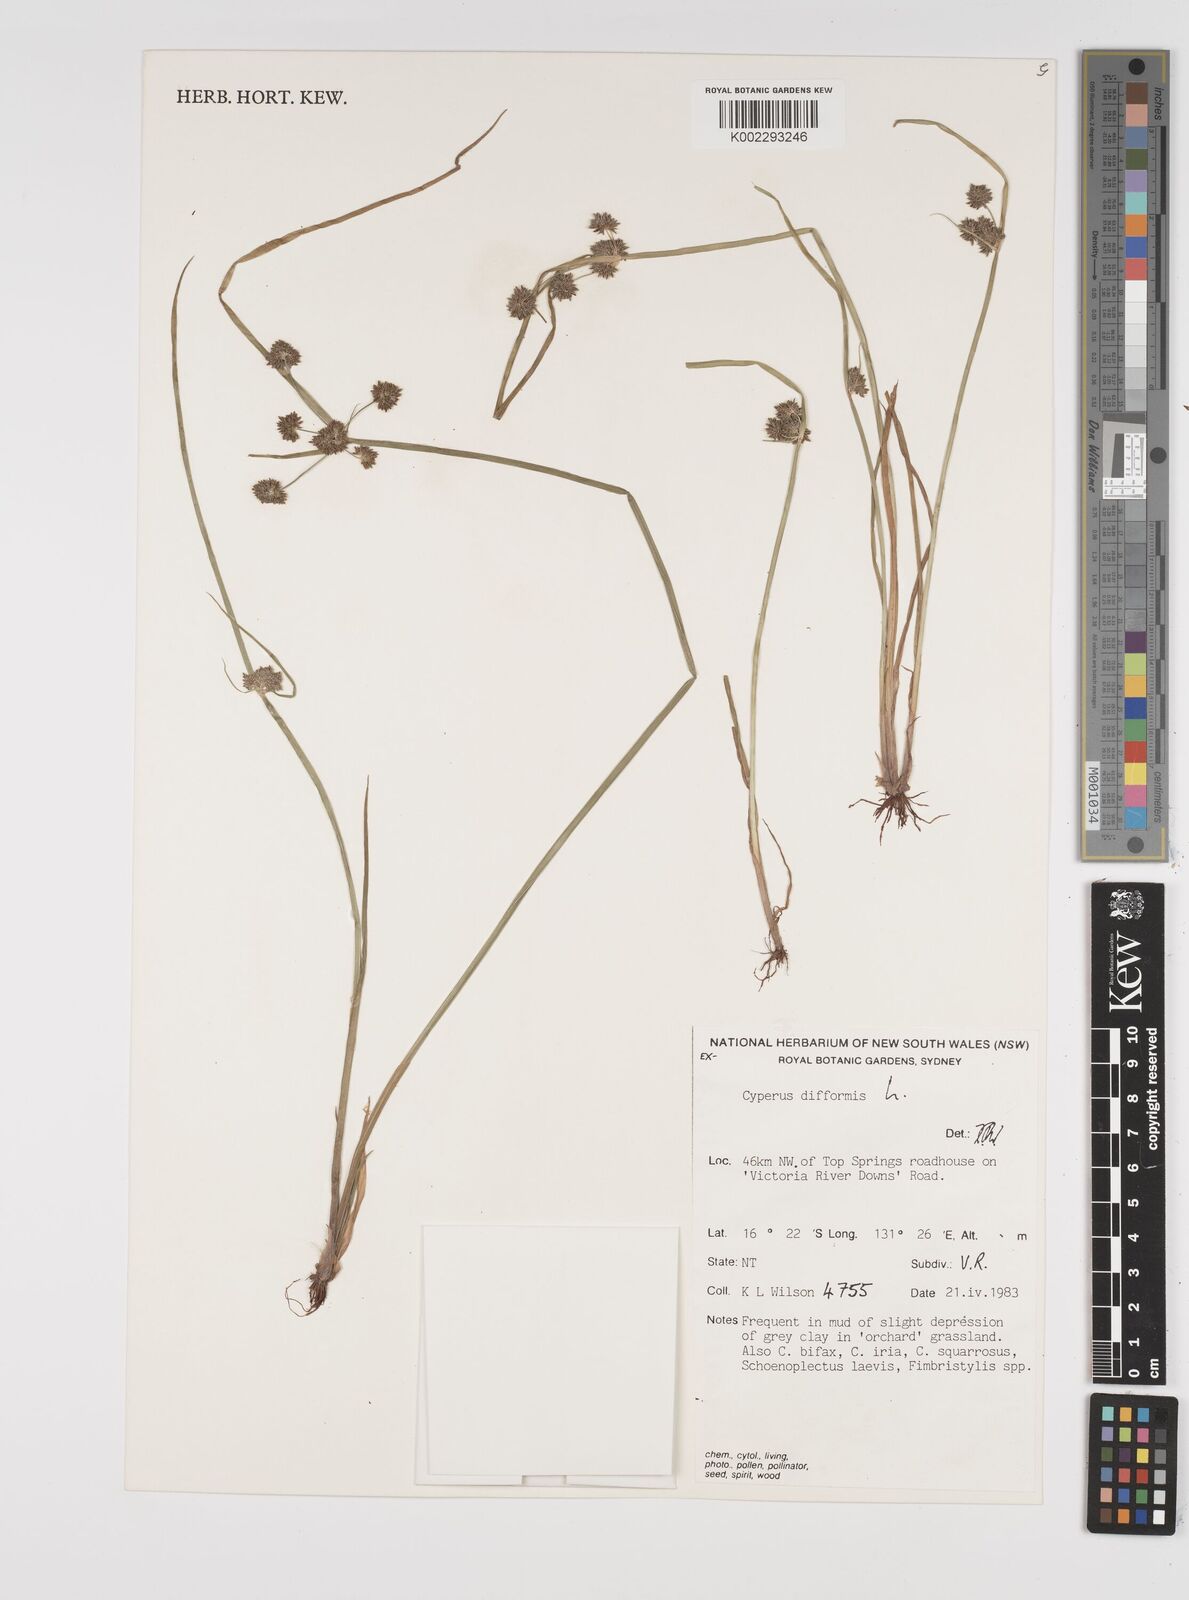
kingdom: Plantae
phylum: Tracheophyta
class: Liliopsida
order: Poales
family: Cyperaceae
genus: Cyperus
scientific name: Cyperus difformis
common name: Variable flatsedge
